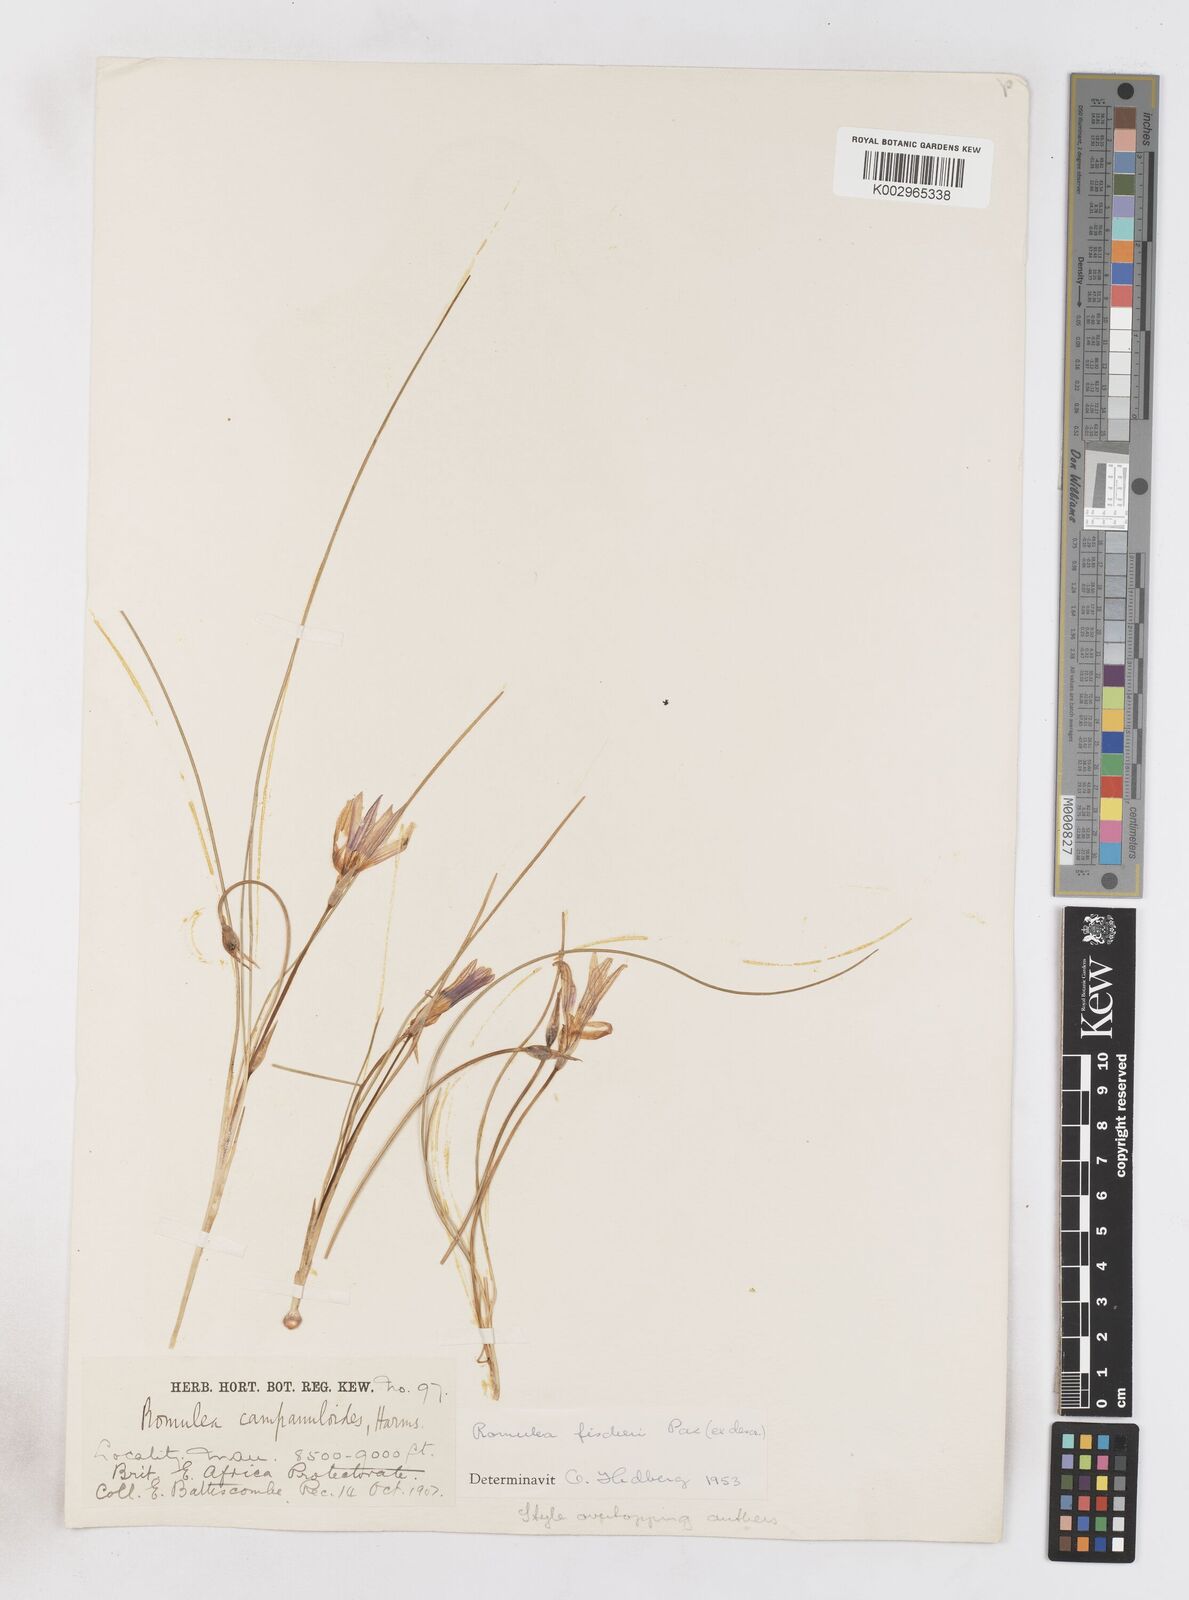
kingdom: Plantae
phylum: Tracheophyta
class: Liliopsida
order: Asparagales
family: Iridaceae
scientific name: Iridaceae
